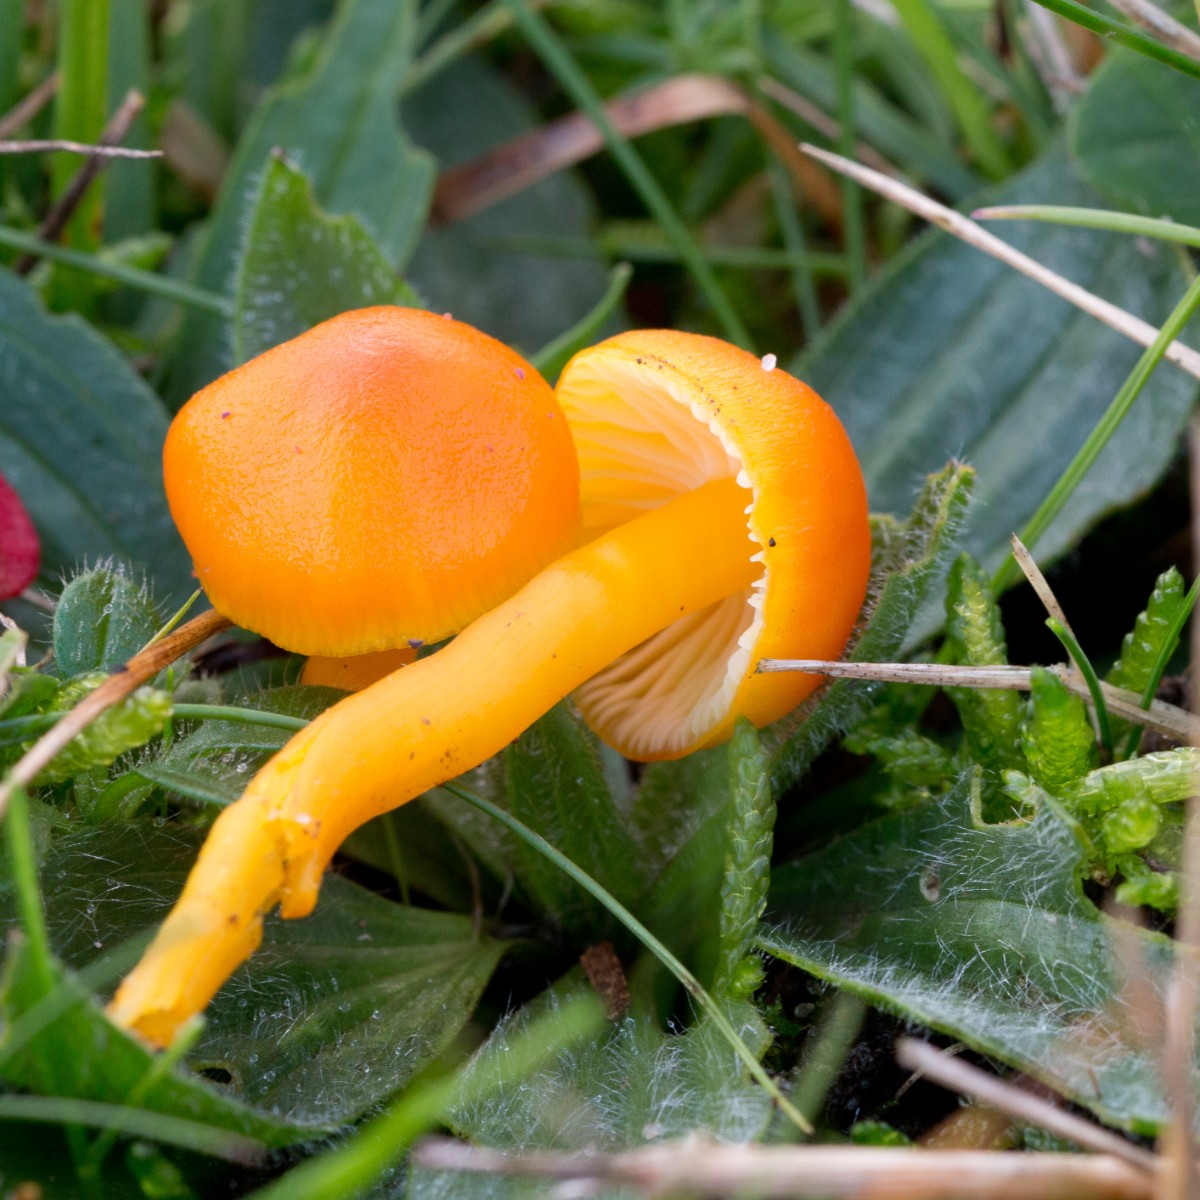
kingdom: Fungi
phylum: Basidiomycota
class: Agaricomycetes
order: Agaricales
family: Hygrophoraceae
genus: Hygrocybe
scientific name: Hygrocybe ceracea
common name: voksgul vokshat
